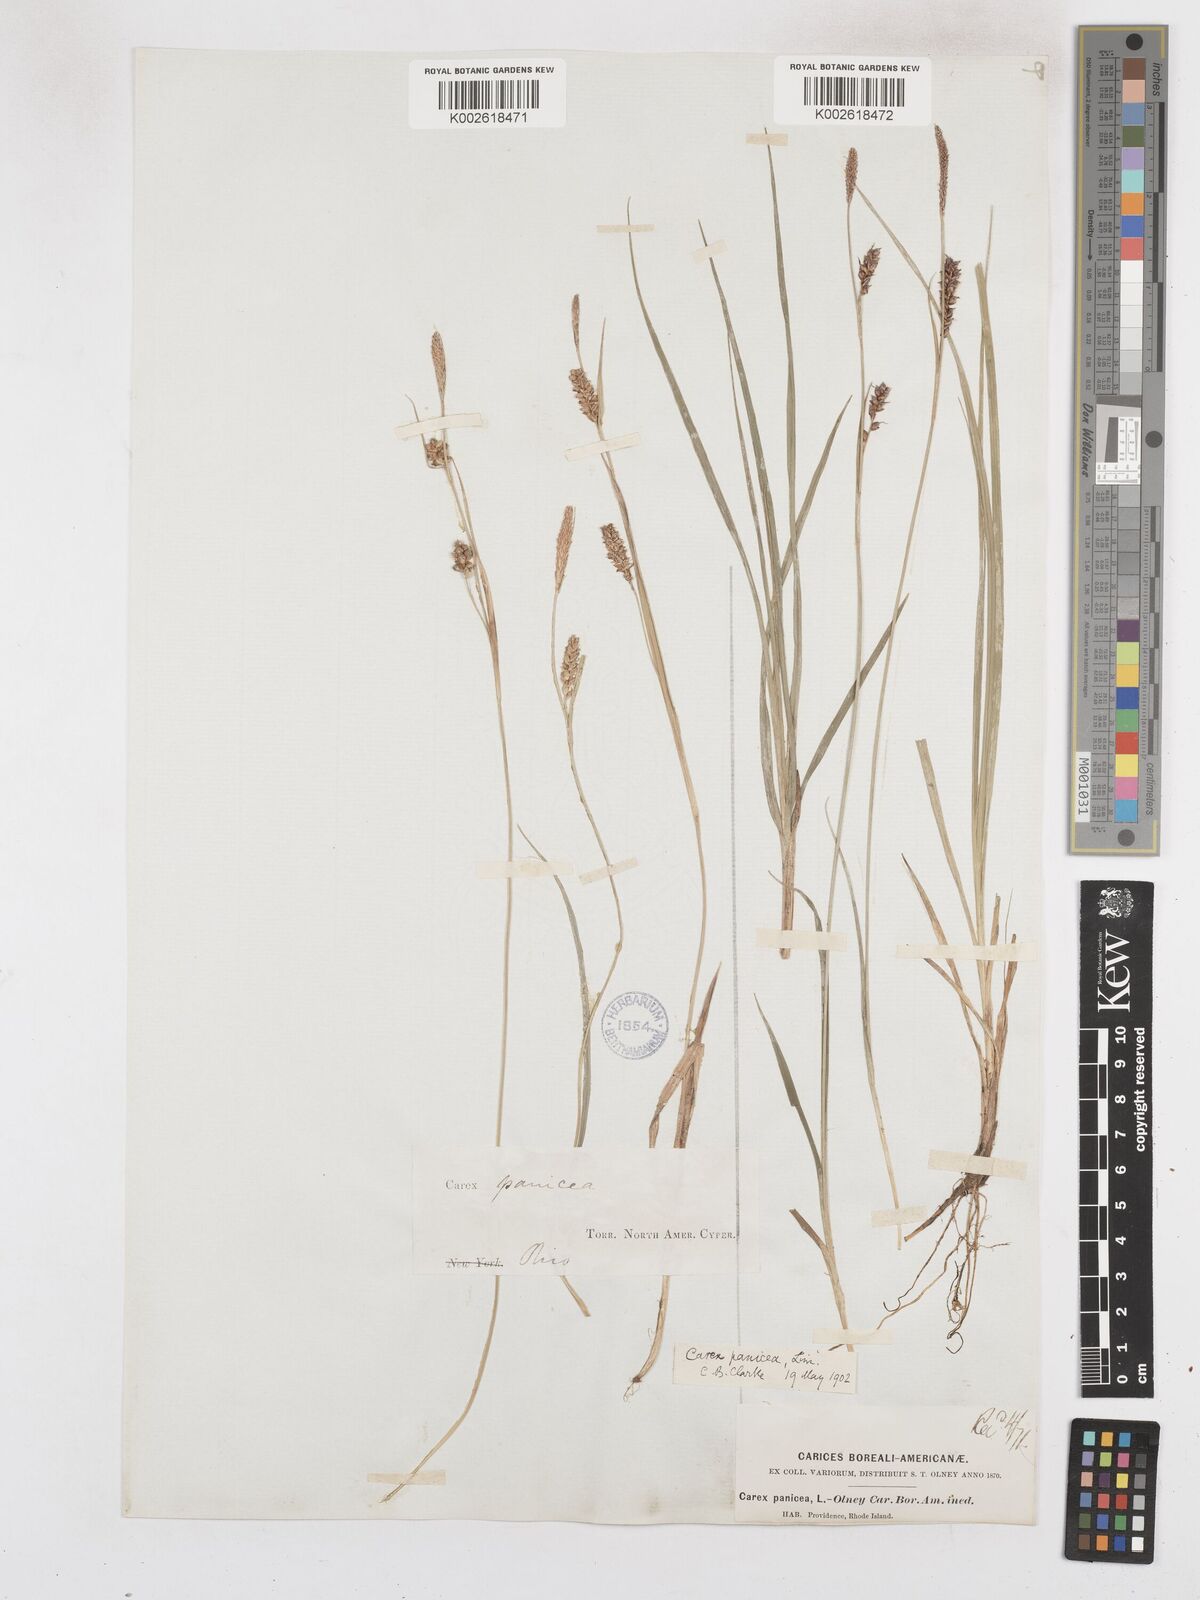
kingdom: Plantae
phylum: Tracheophyta
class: Liliopsida
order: Poales
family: Cyperaceae
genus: Carex
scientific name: Carex panicea
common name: Carnation sedge
